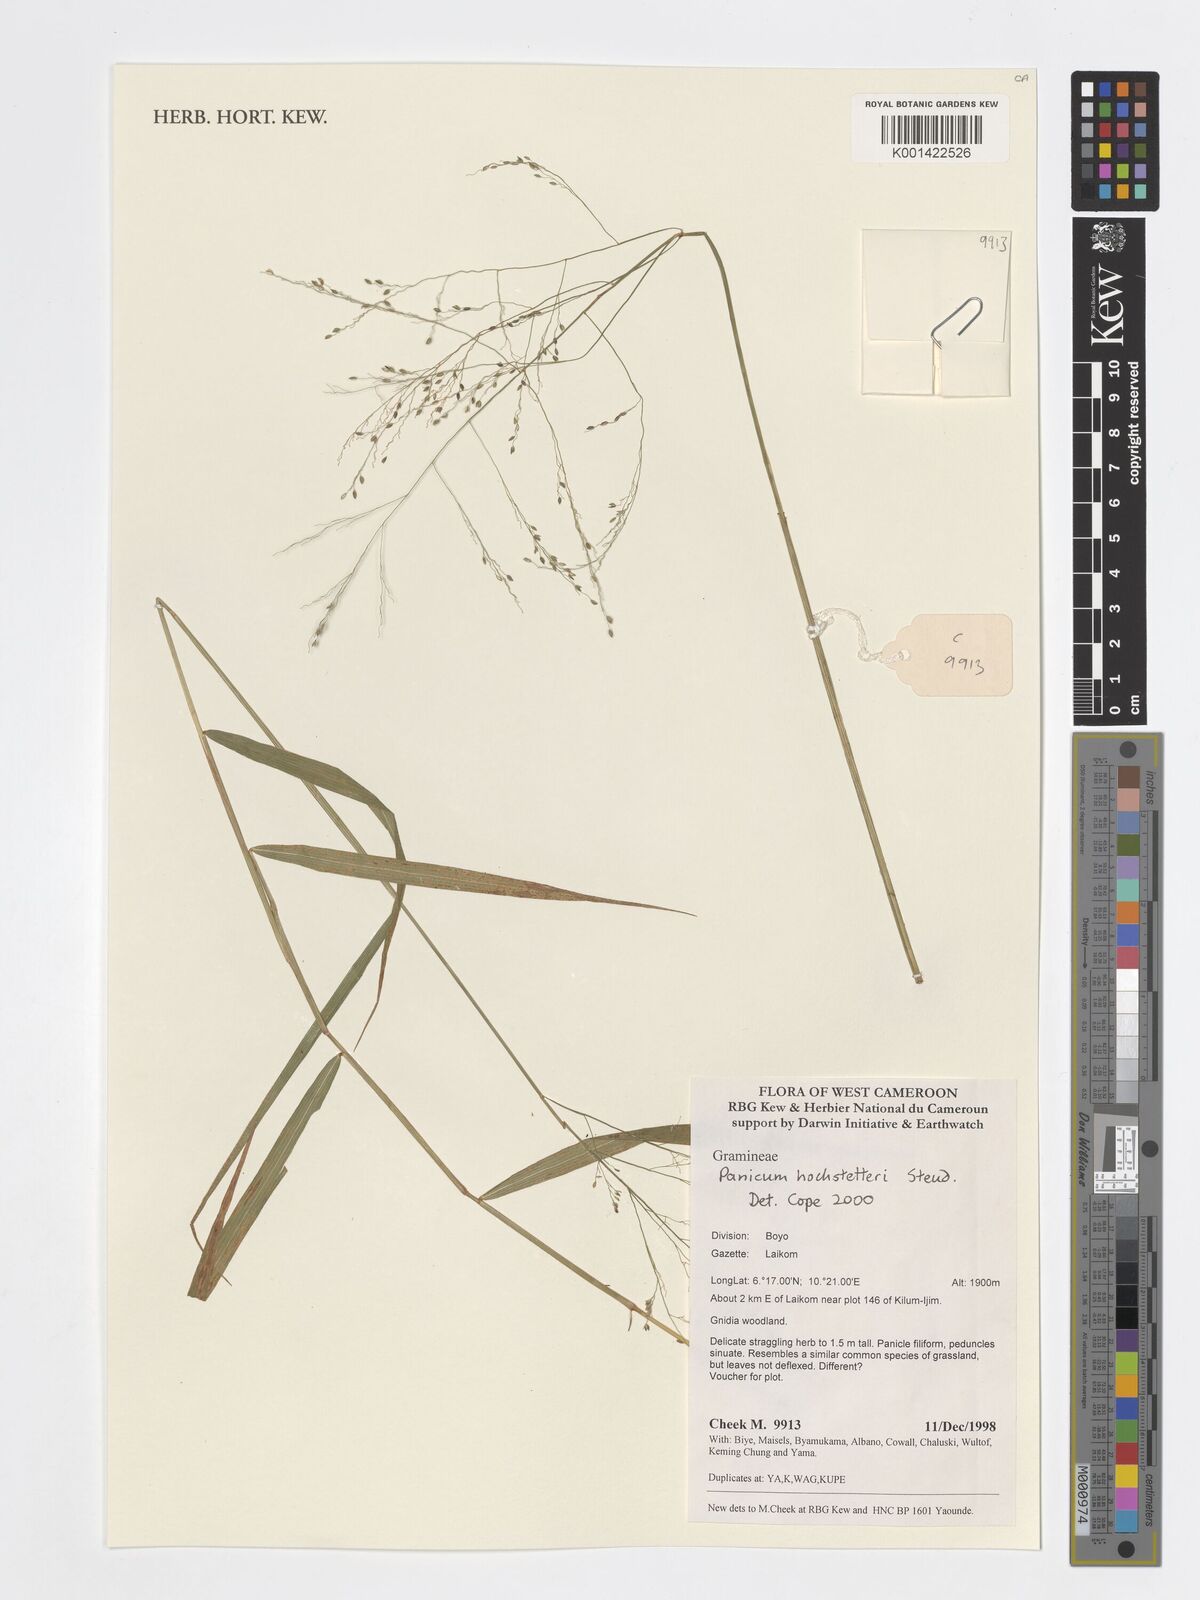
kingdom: Plantae
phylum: Tracheophyta
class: Liliopsida
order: Poales
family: Poaceae
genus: Panicum
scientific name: Panicum hochstetteri
